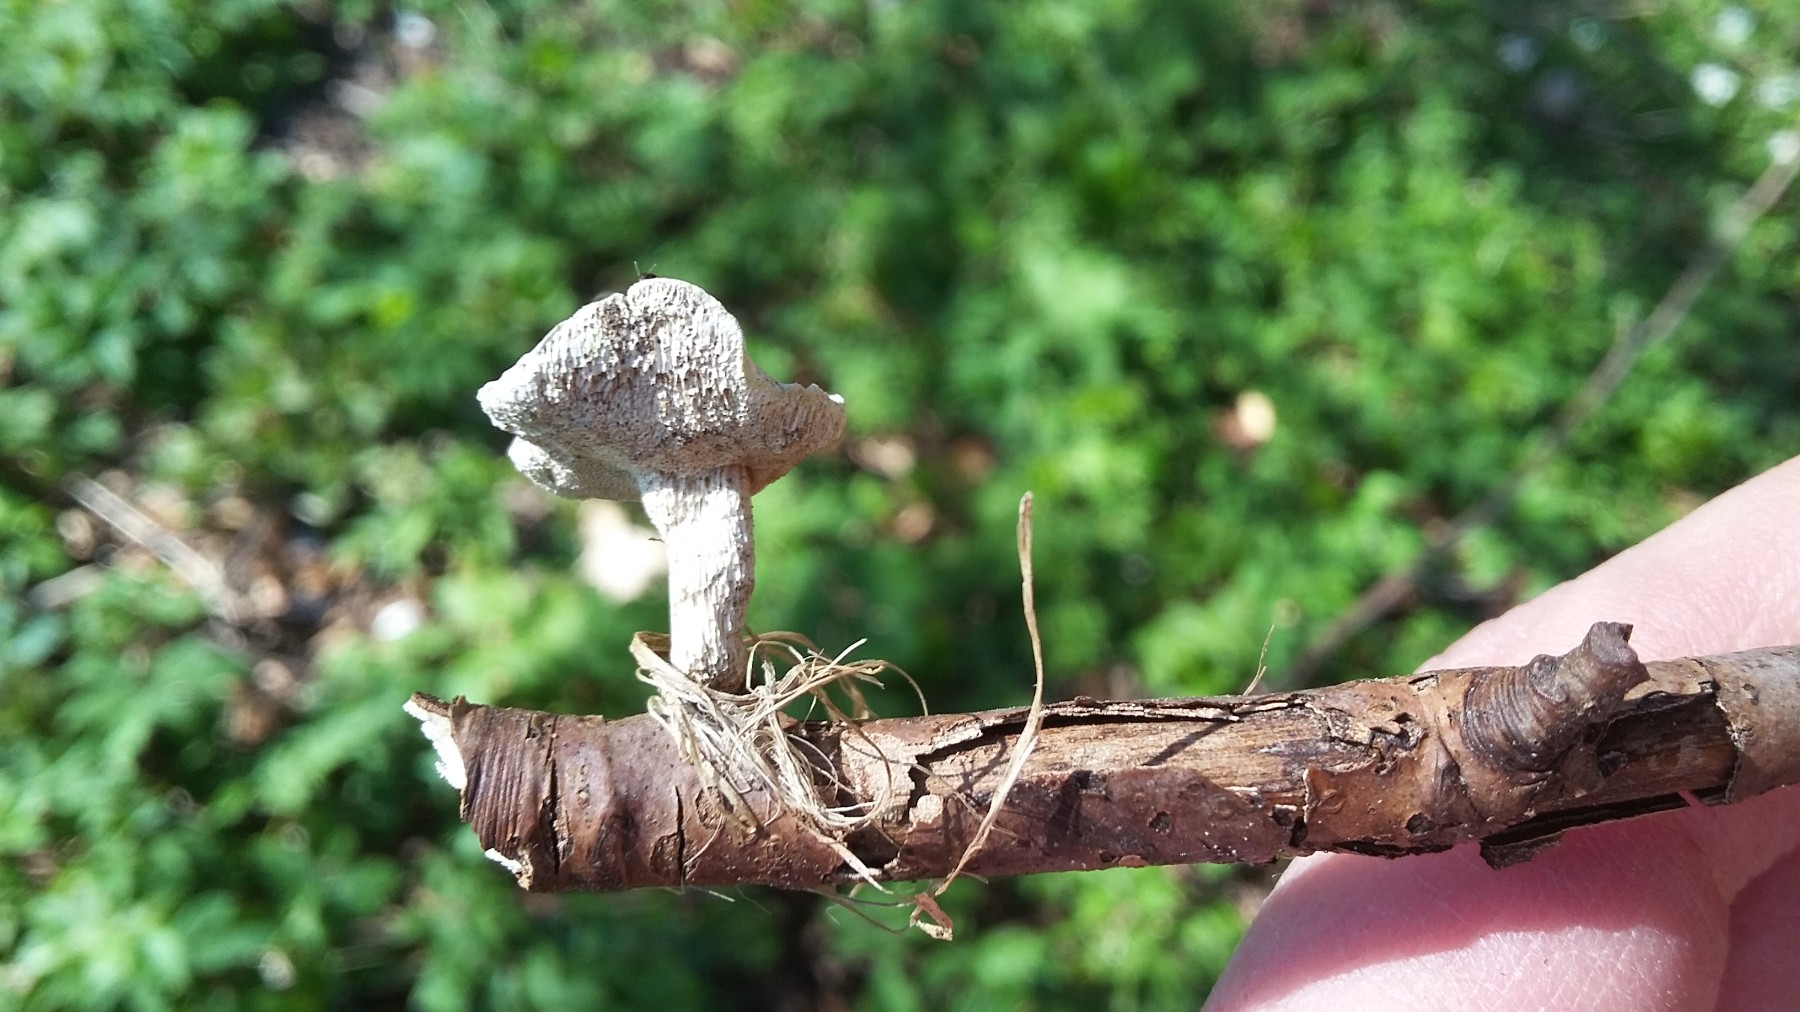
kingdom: Fungi
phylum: Basidiomycota
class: Agaricomycetes
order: Polyporales
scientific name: Polyporales
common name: poresvampordenen
